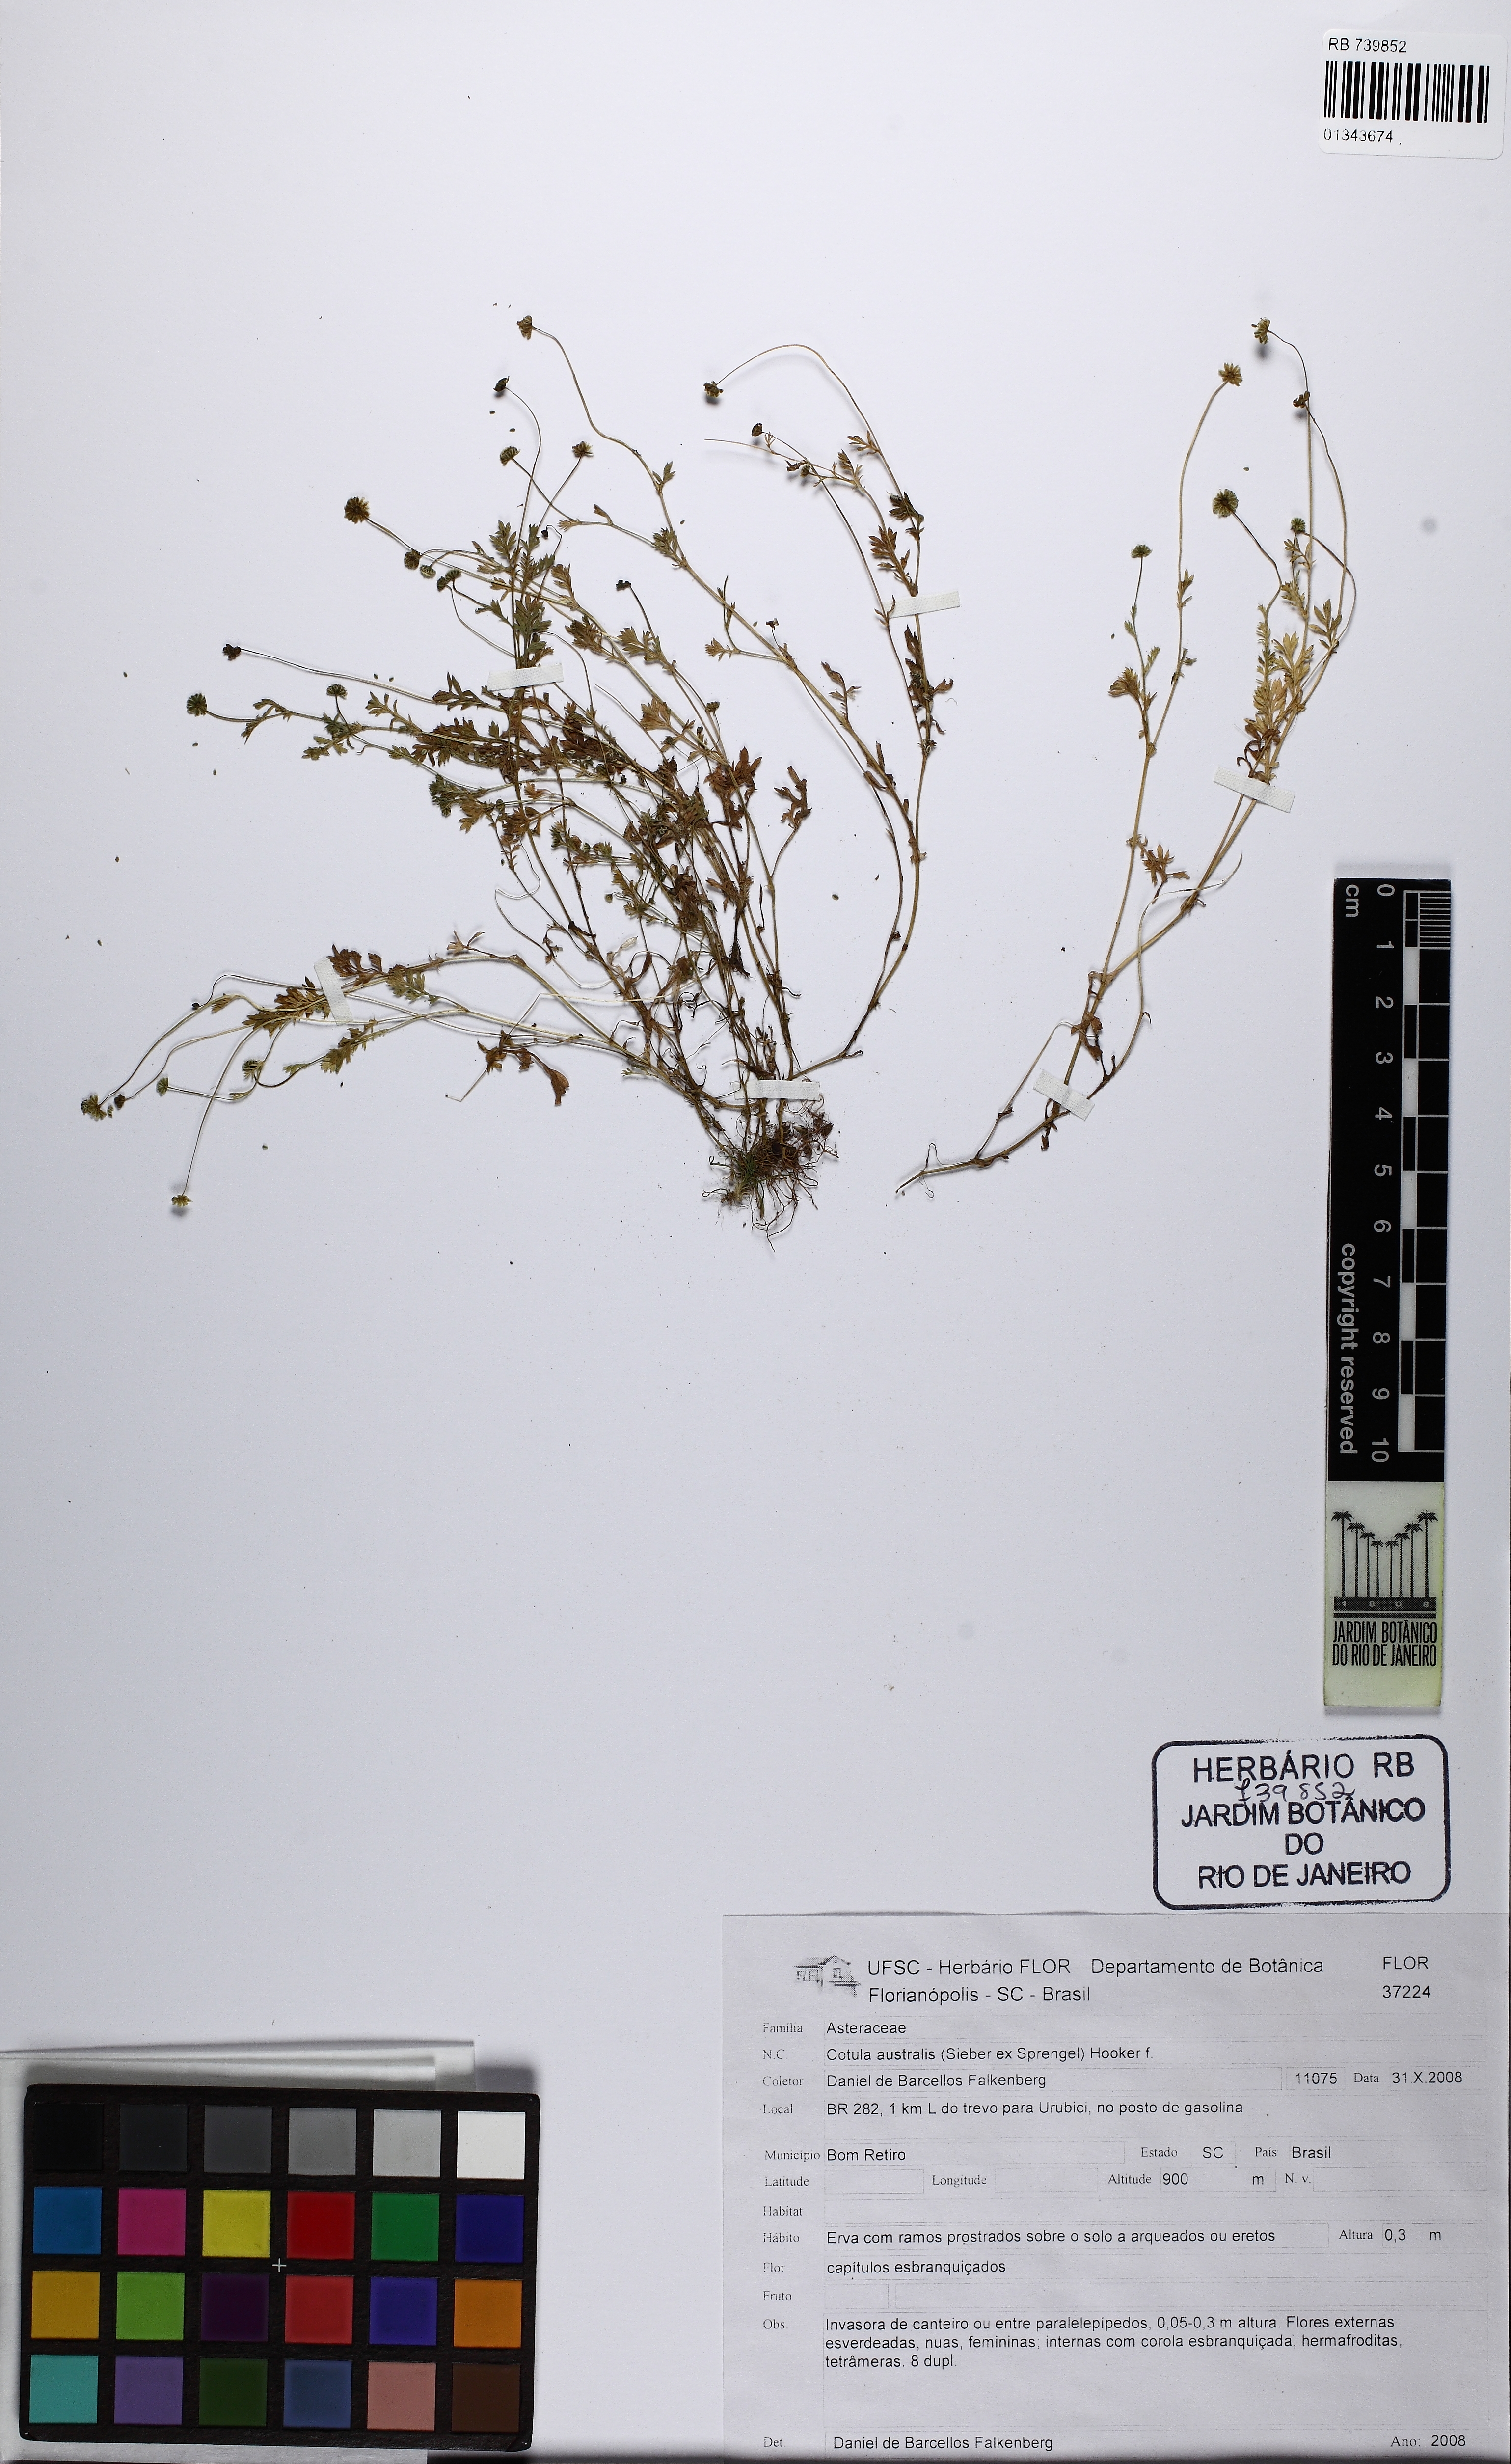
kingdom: Plantae
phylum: Tracheophyta
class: Magnoliopsida
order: Asterales
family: Asteraceae
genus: Cotula
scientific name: Cotula australis
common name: Australian waterbuttons
